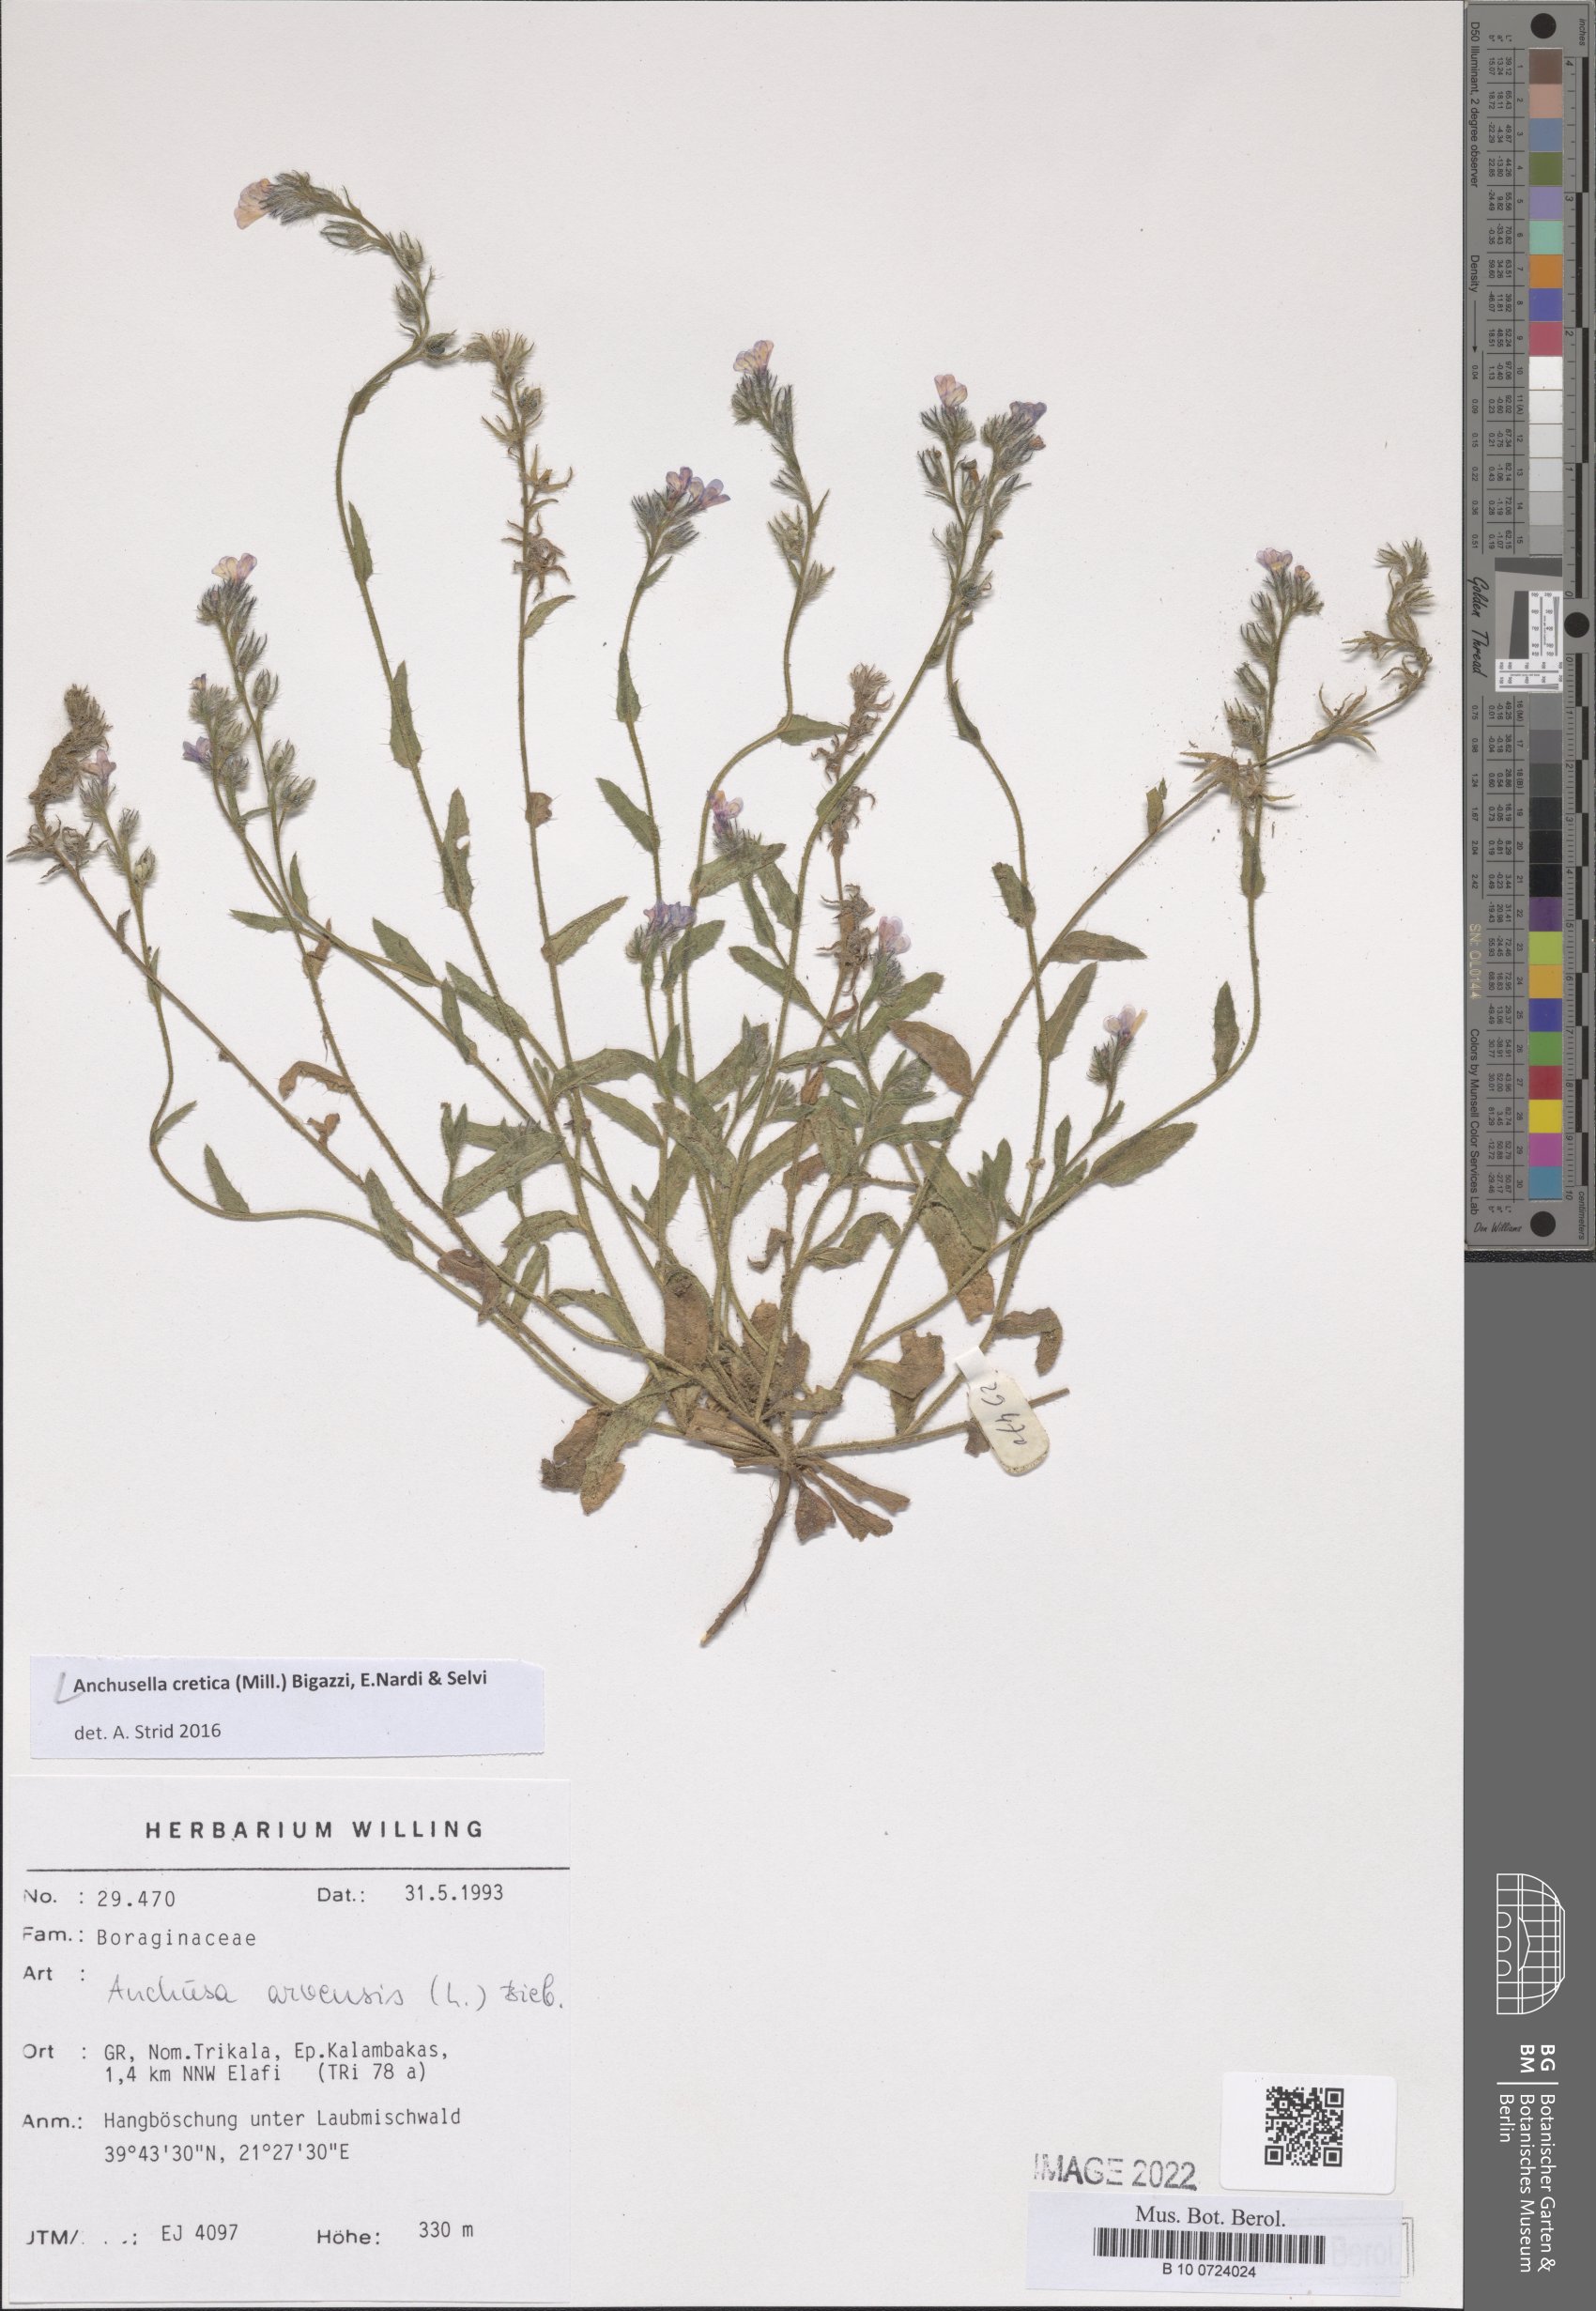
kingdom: Plantae
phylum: Tracheophyta
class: Magnoliopsida
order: Boraginales
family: Boraginaceae
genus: Anchusella
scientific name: Anchusella cretica
